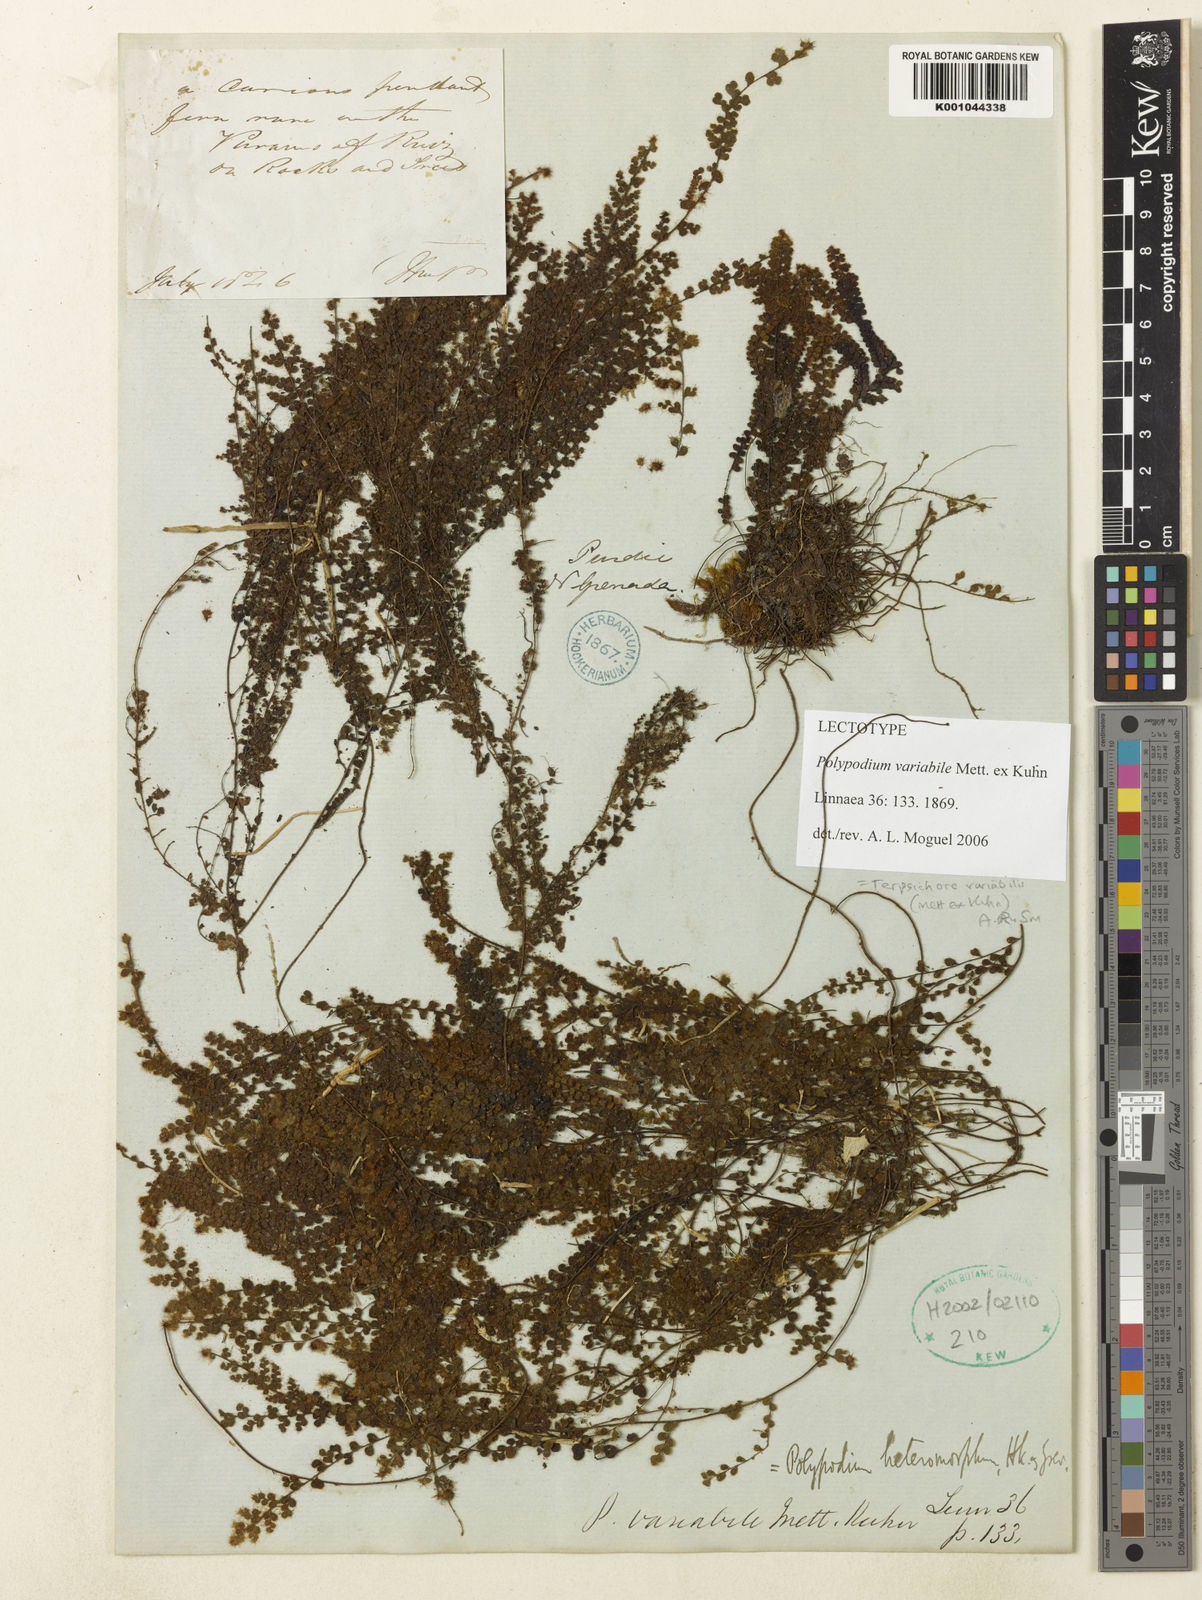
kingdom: Plantae
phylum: Tracheophyta
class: Polypodiopsida
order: Polypodiales
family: Polypodiaceae
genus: Alansmia
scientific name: Alansmia variabilis
